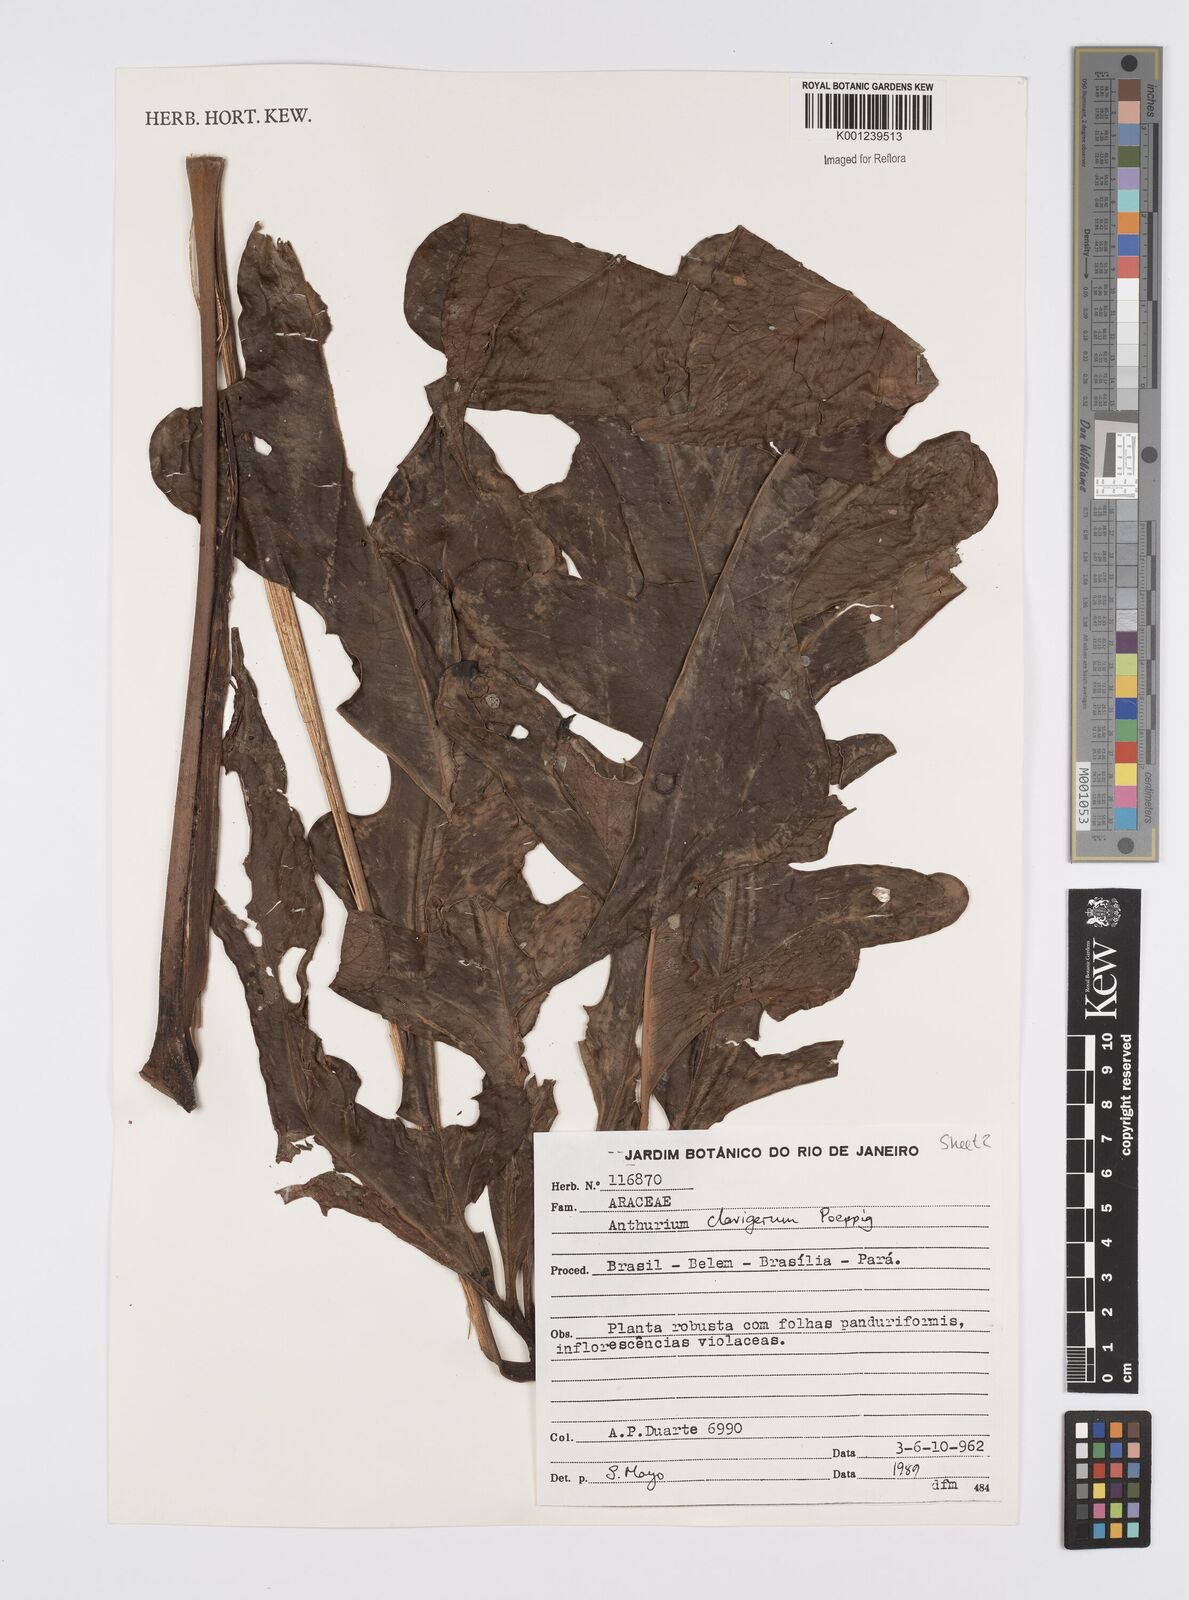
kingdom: Plantae
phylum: Tracheophyta
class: Liliopsida
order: Alismatales
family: Araceae
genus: Anthurium
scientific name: Anthurium clavigerum
